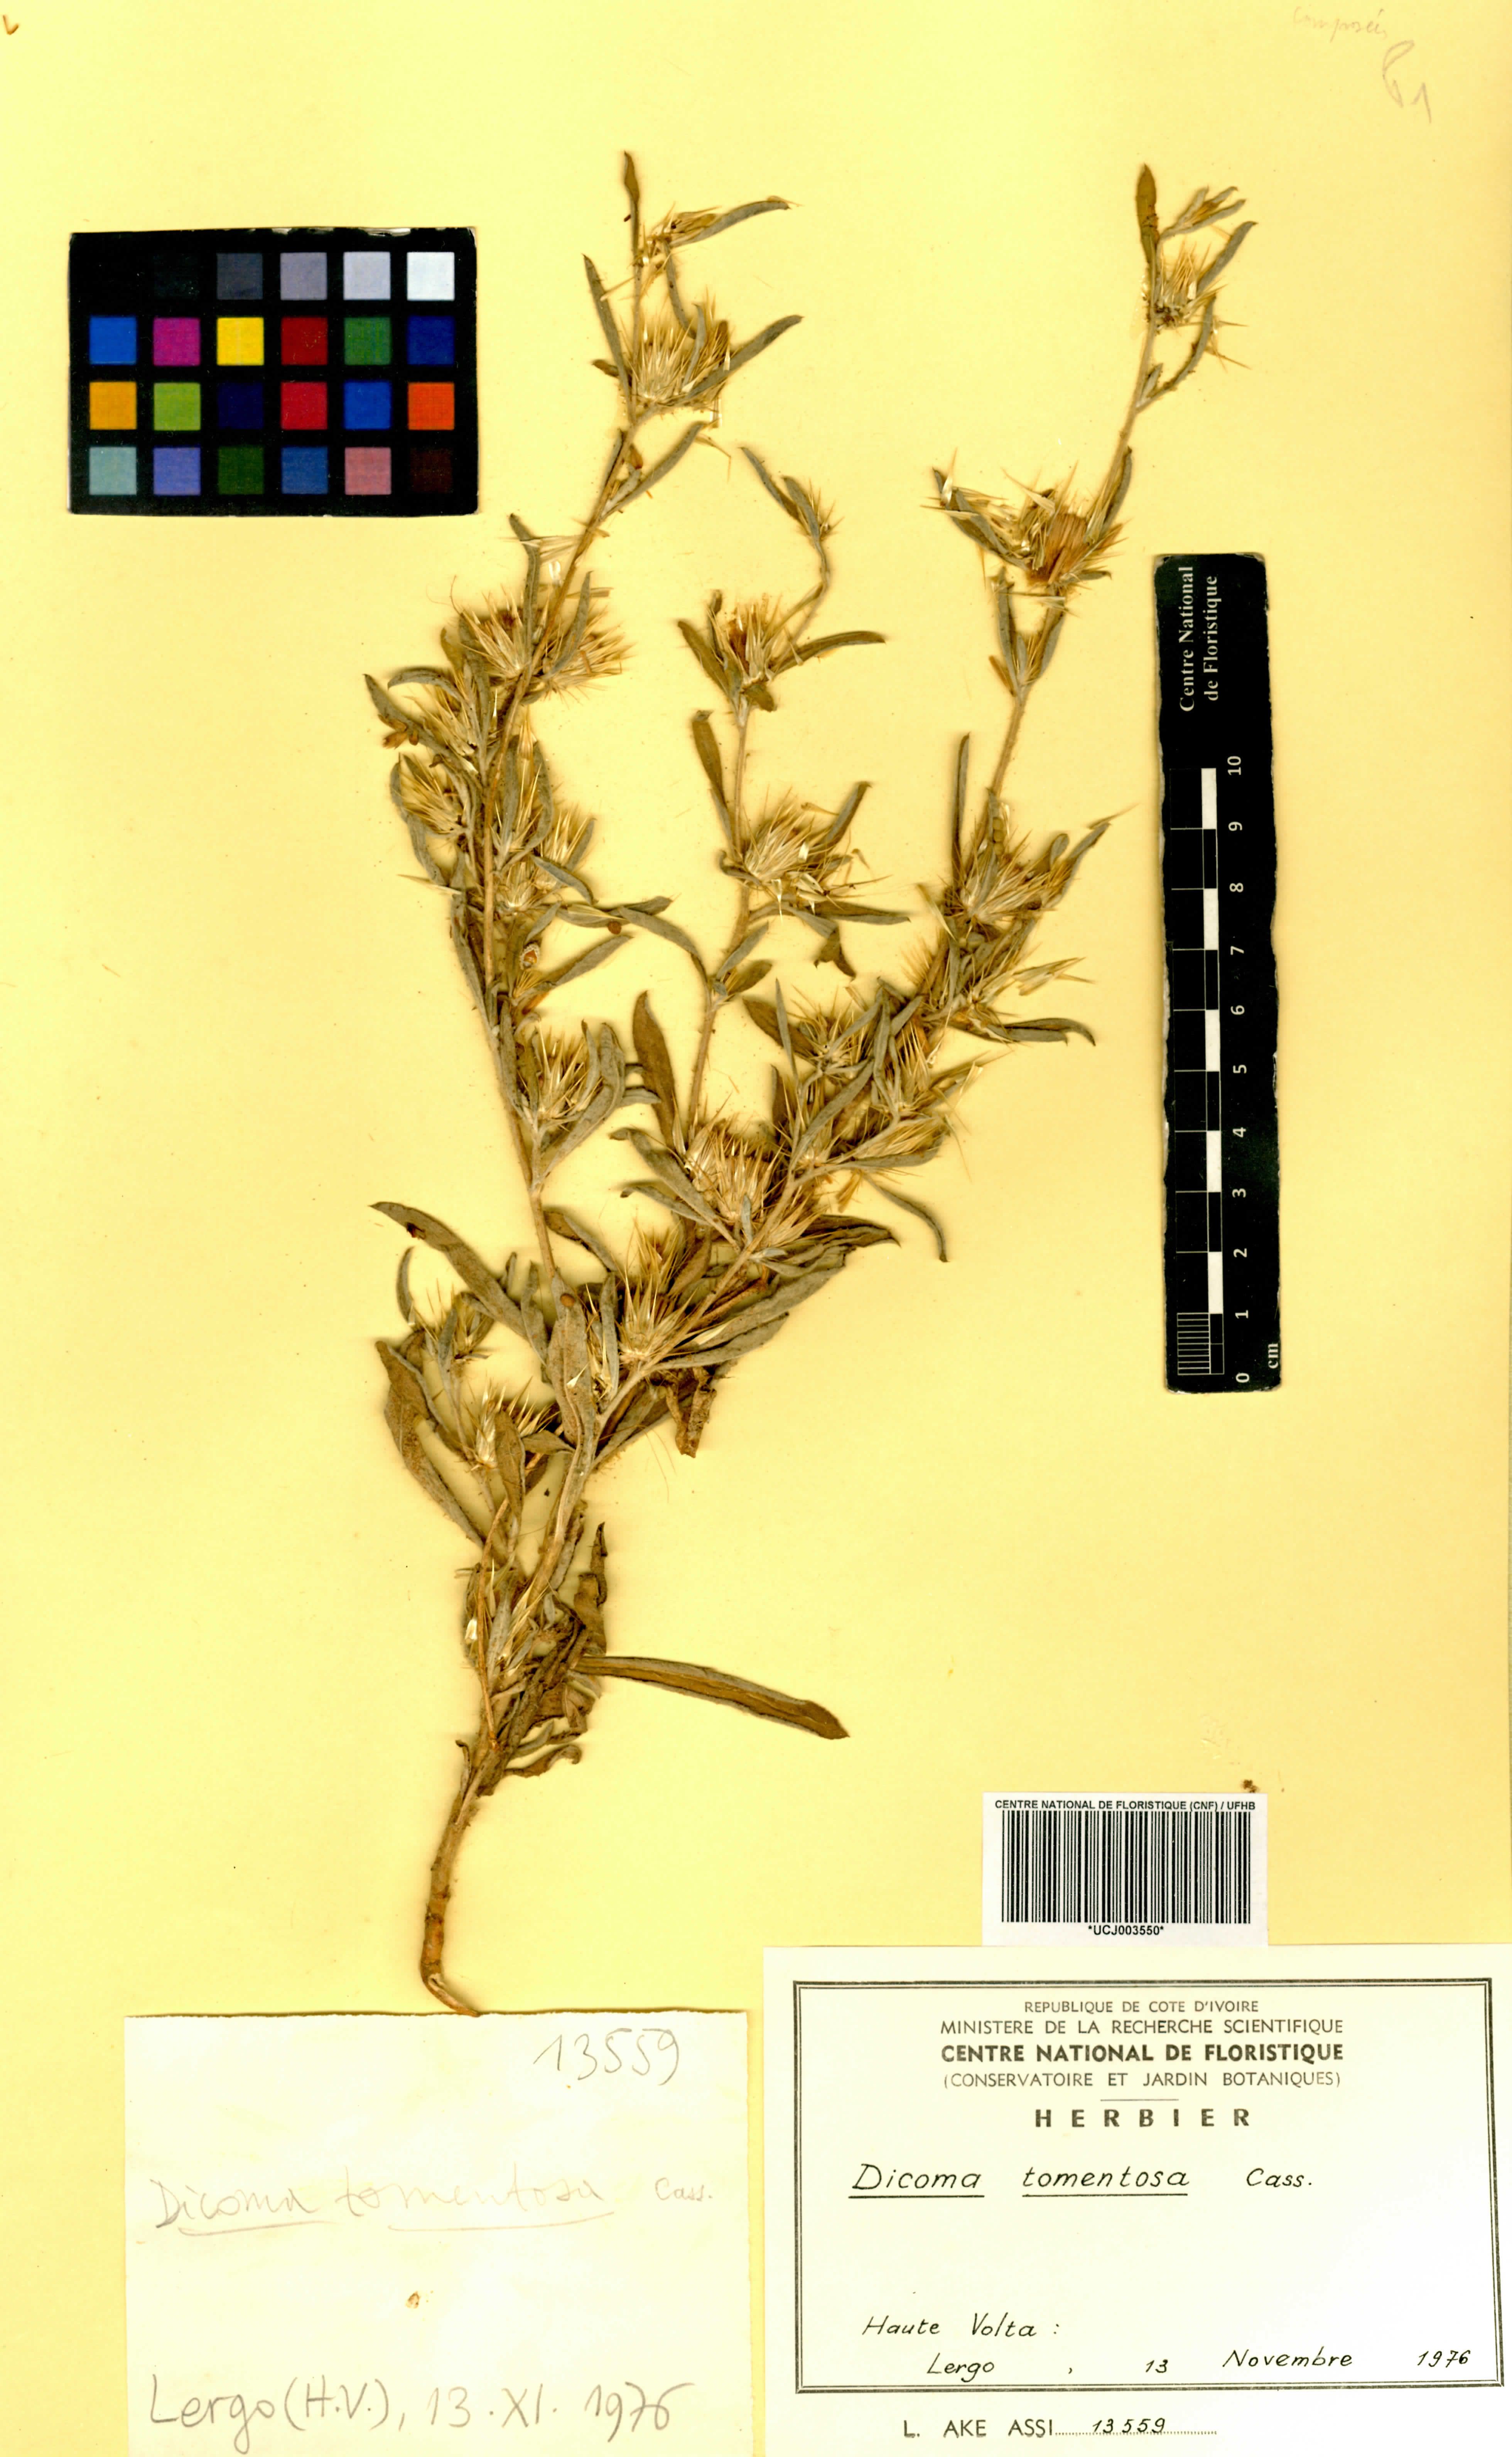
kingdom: Plantae
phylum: Tracheophyta
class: Magnoliopsida
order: Asterales
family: Asteraceae
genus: Dicoma
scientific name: Dicoma tomentosa
